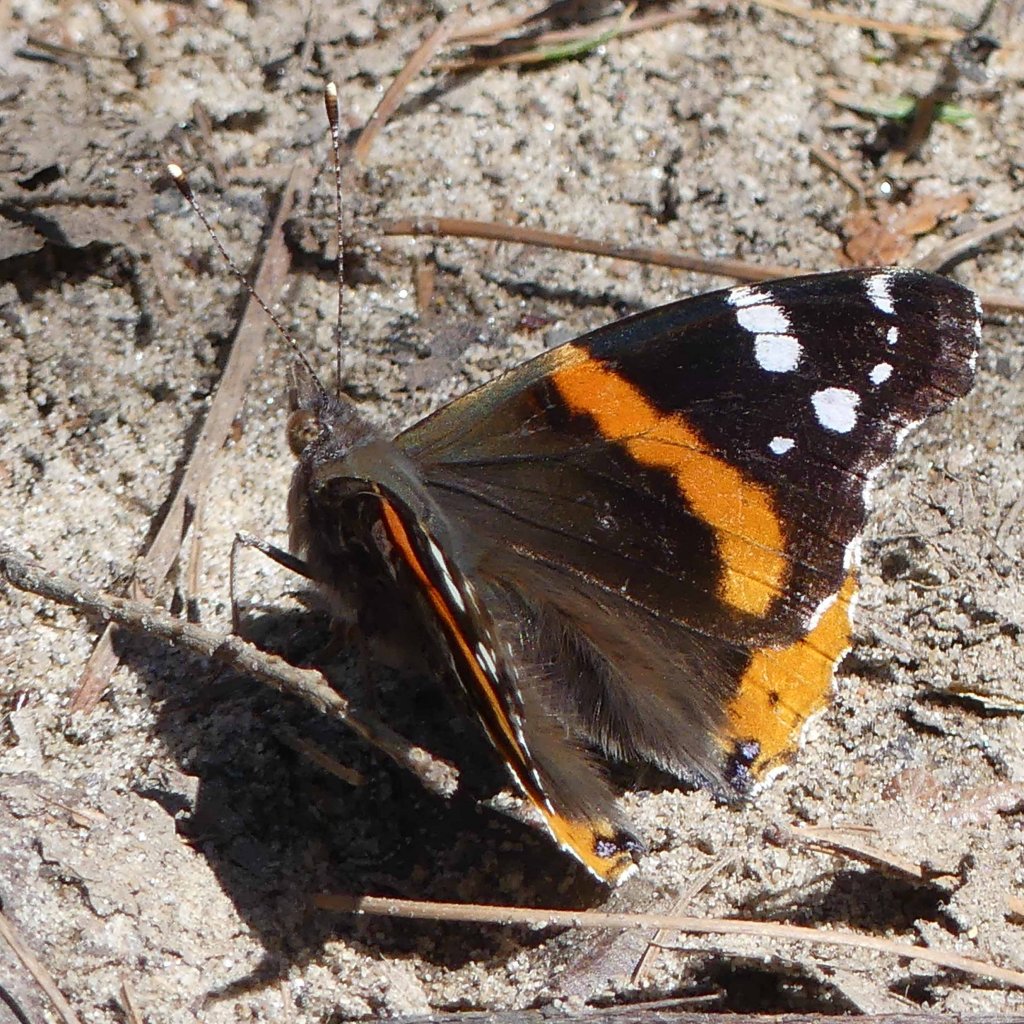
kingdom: Animalia
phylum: Arthropoda
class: Insecta
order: Lepidoptera
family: Nymphalidae
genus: Vanessa
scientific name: Vanessa atalanta
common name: Red Admiral
